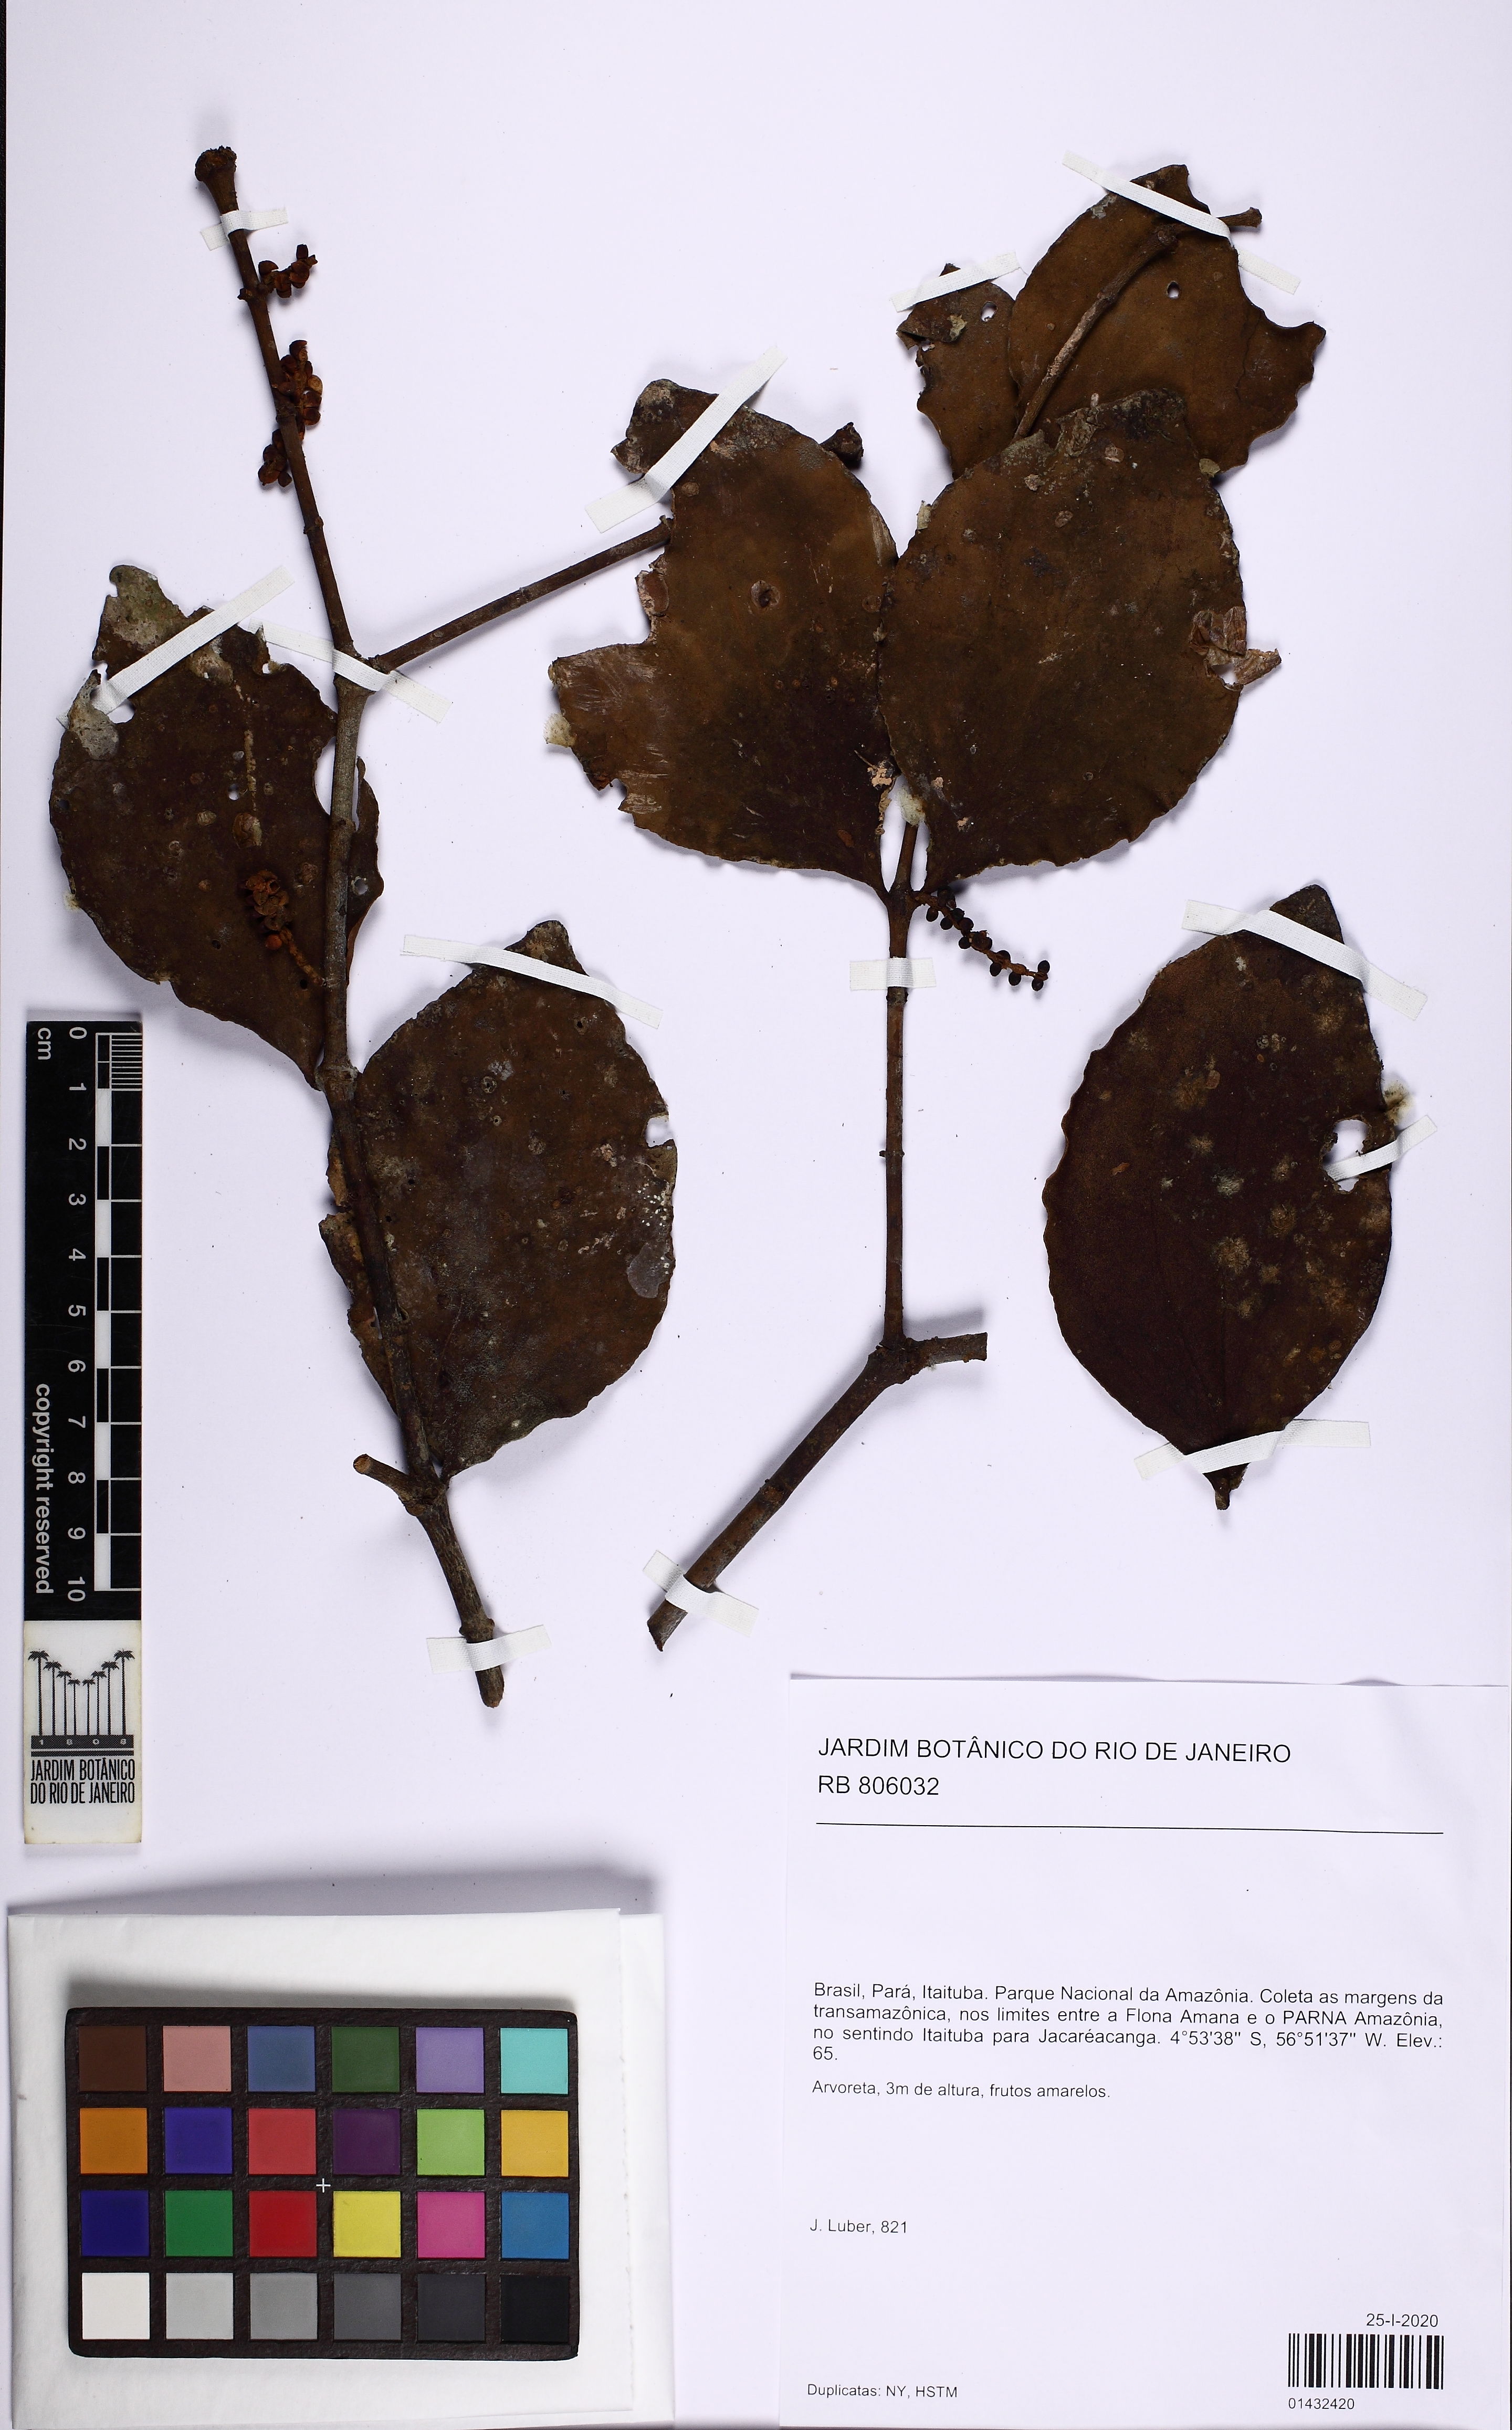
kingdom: Plantae
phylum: Tracheophyta
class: Magnoliopsida
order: Santalales
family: Viscaceae
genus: Phoradendron
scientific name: Phoradendron crassifolium
